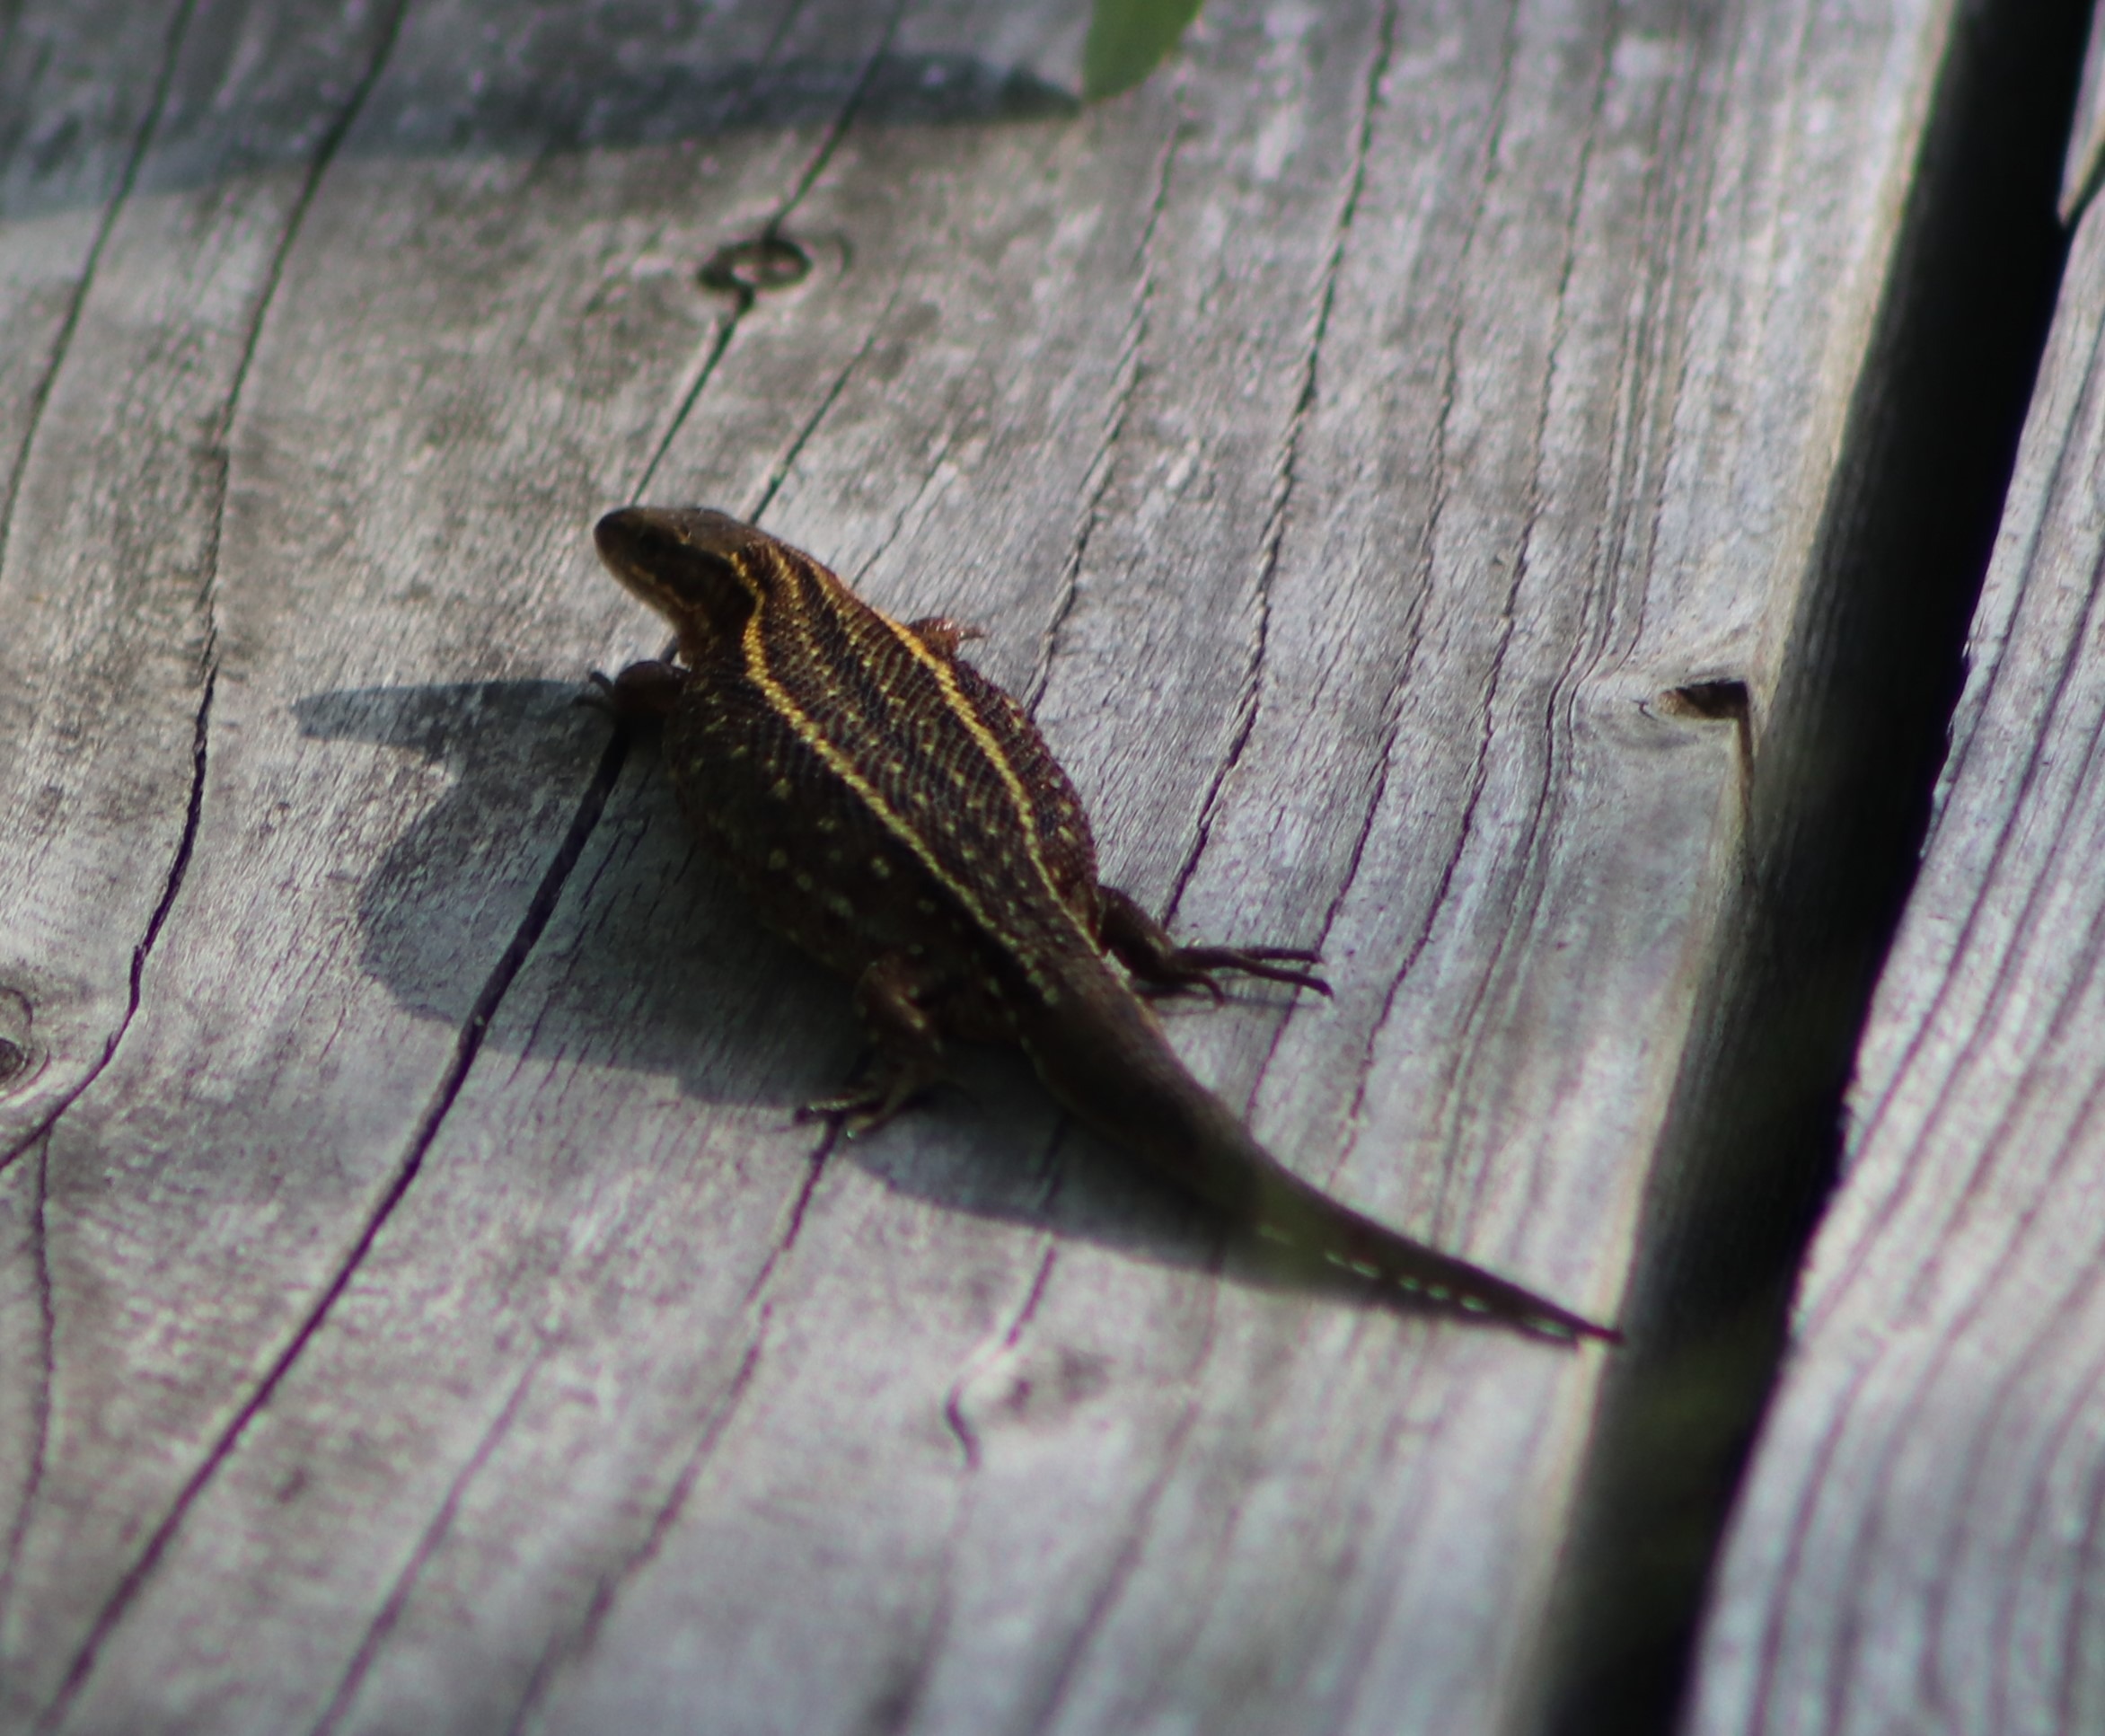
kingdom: Animalia
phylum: Chordata
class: Squamata
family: Lacertidae
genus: Zootoca
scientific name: Zootoca vivipara
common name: Skovfirben
